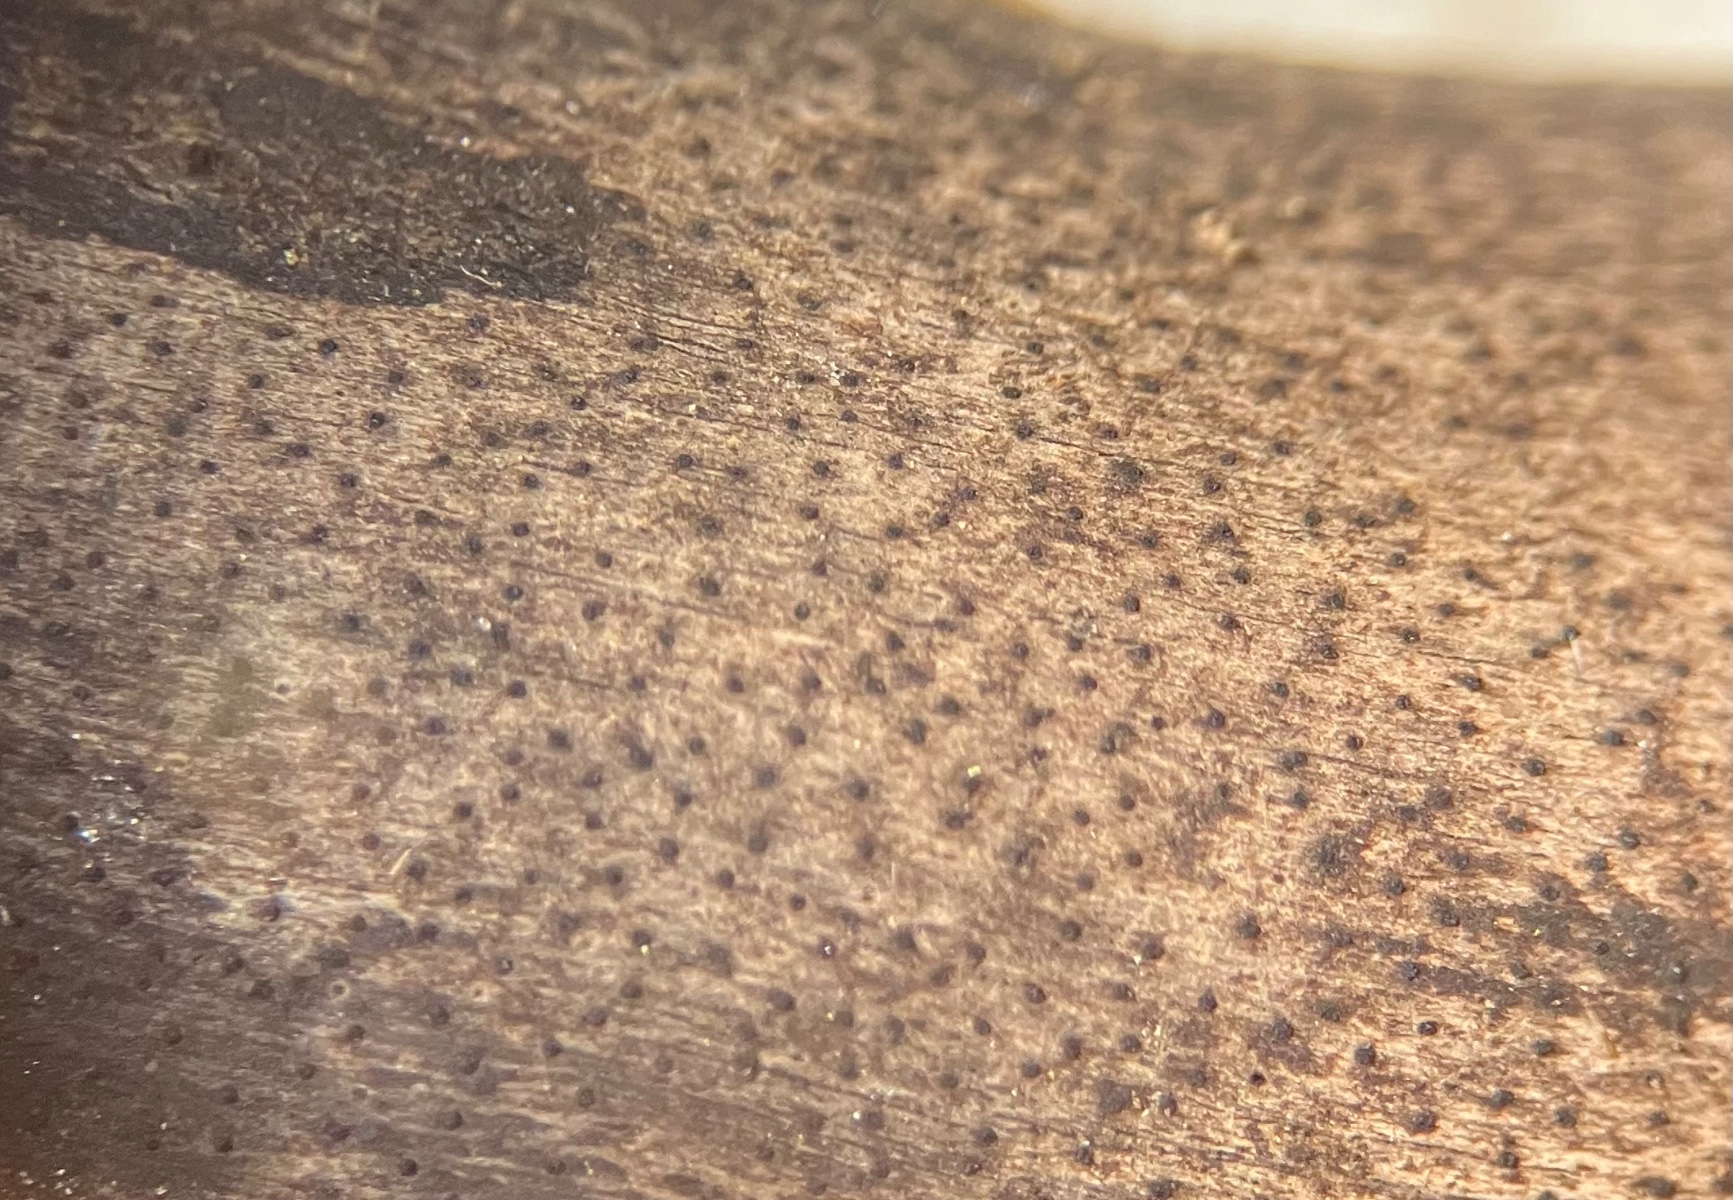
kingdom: Fungi
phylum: Ascomycota
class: Sordariomycetes
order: Xylariales
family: Diatrypaceae
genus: Eutypa
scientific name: Eutypa maura
